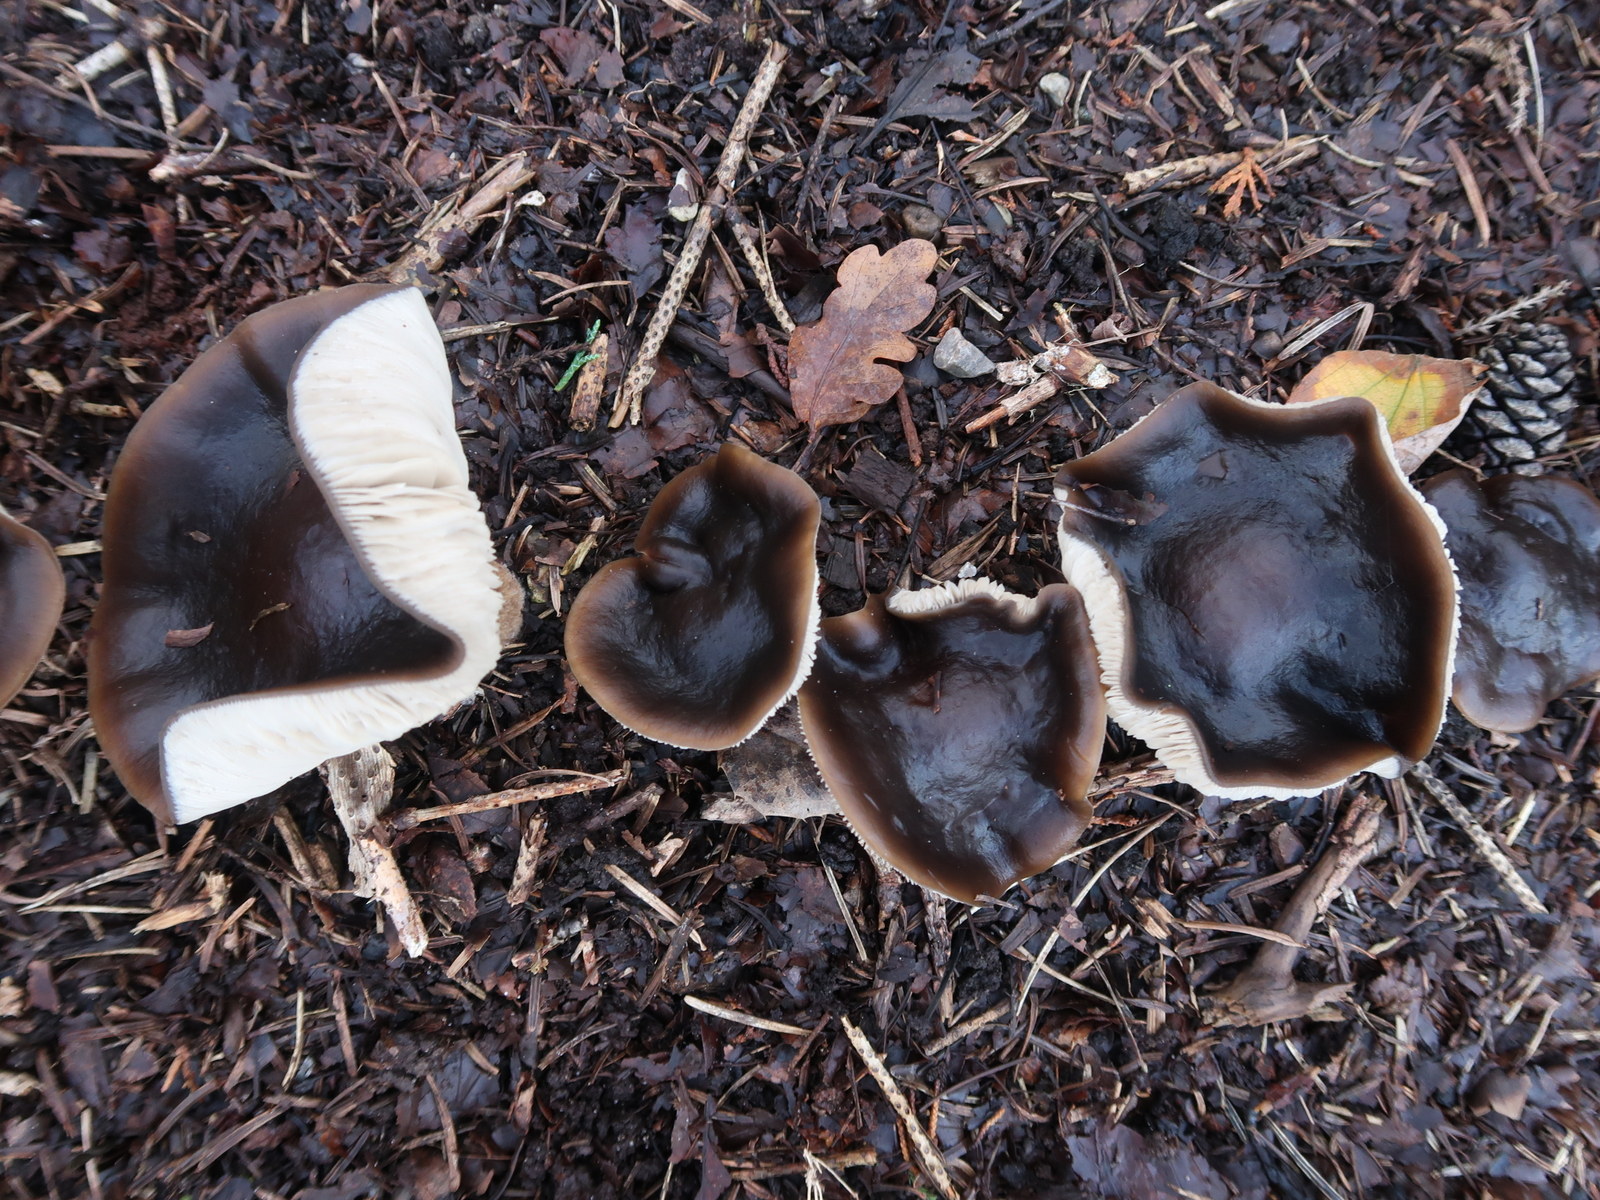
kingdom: Fungi
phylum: Basidiomycota
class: Agaricomycetes
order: Agaricales
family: Tricholomataceae
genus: Melanoleuca
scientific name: Melanoleuca
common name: munkehat
